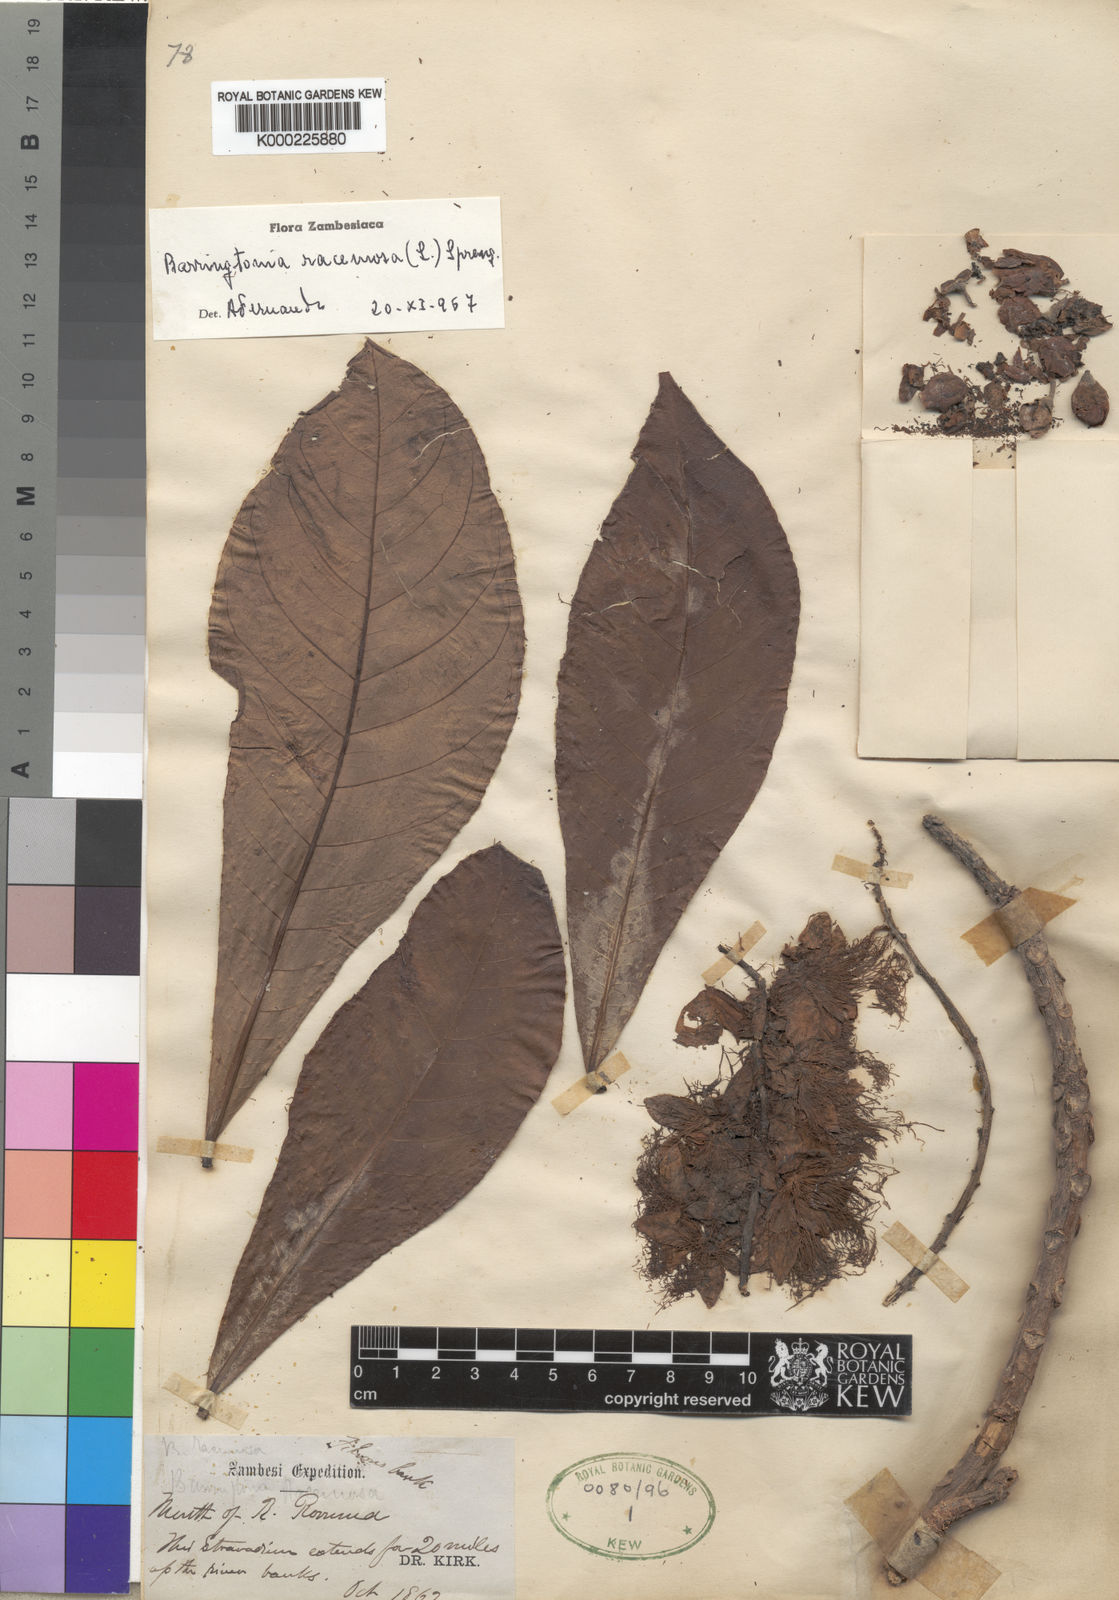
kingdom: Plantae
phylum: Tracheophyta
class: Magnoliopsida
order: Ericales
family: Lecythidaceae
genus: Barringtonia
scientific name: Barringtonia racemosa
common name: Brackwater mangrove
